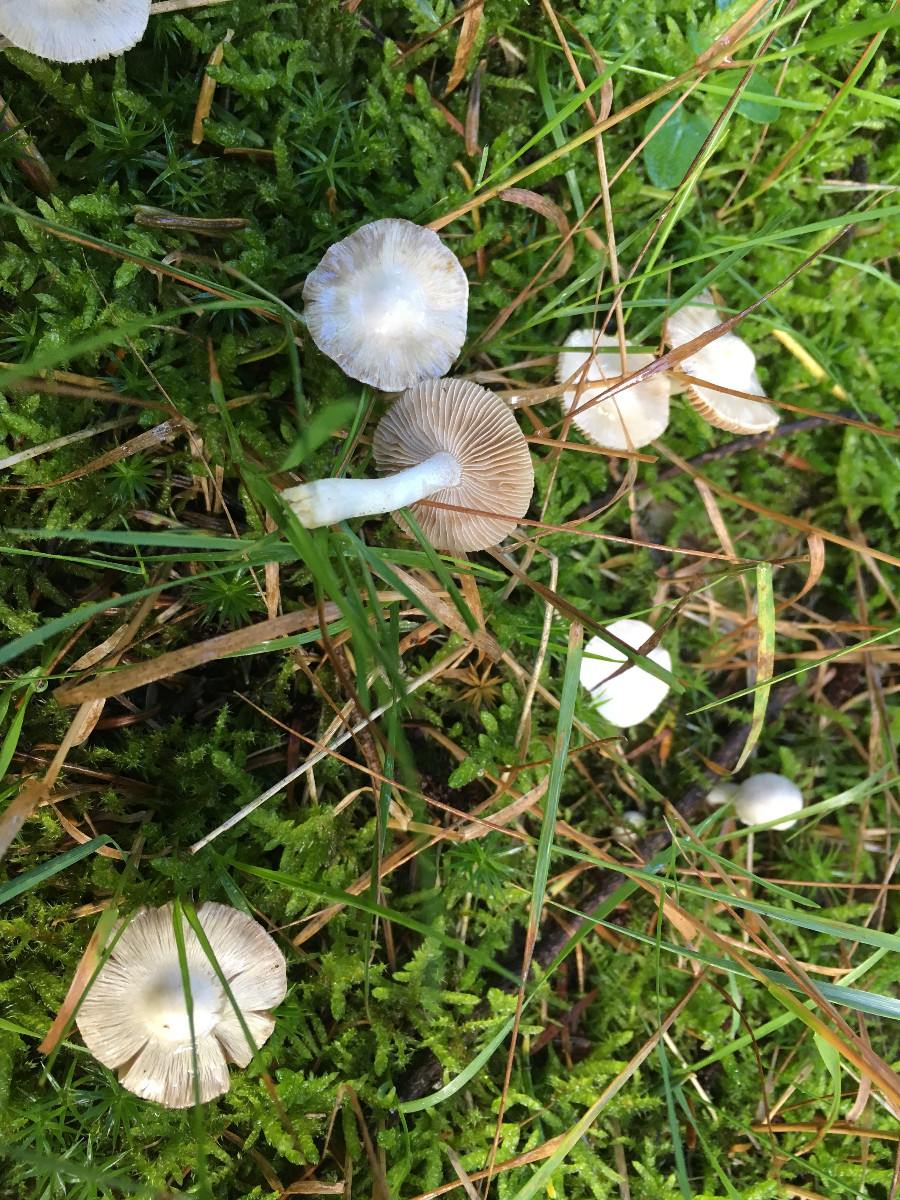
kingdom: Fungi
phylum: Basidiomycota
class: Agaricomycetes
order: Agaricales
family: Inocybaceae
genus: Inocybe
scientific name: Inocybe
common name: almindelig trævlhat
